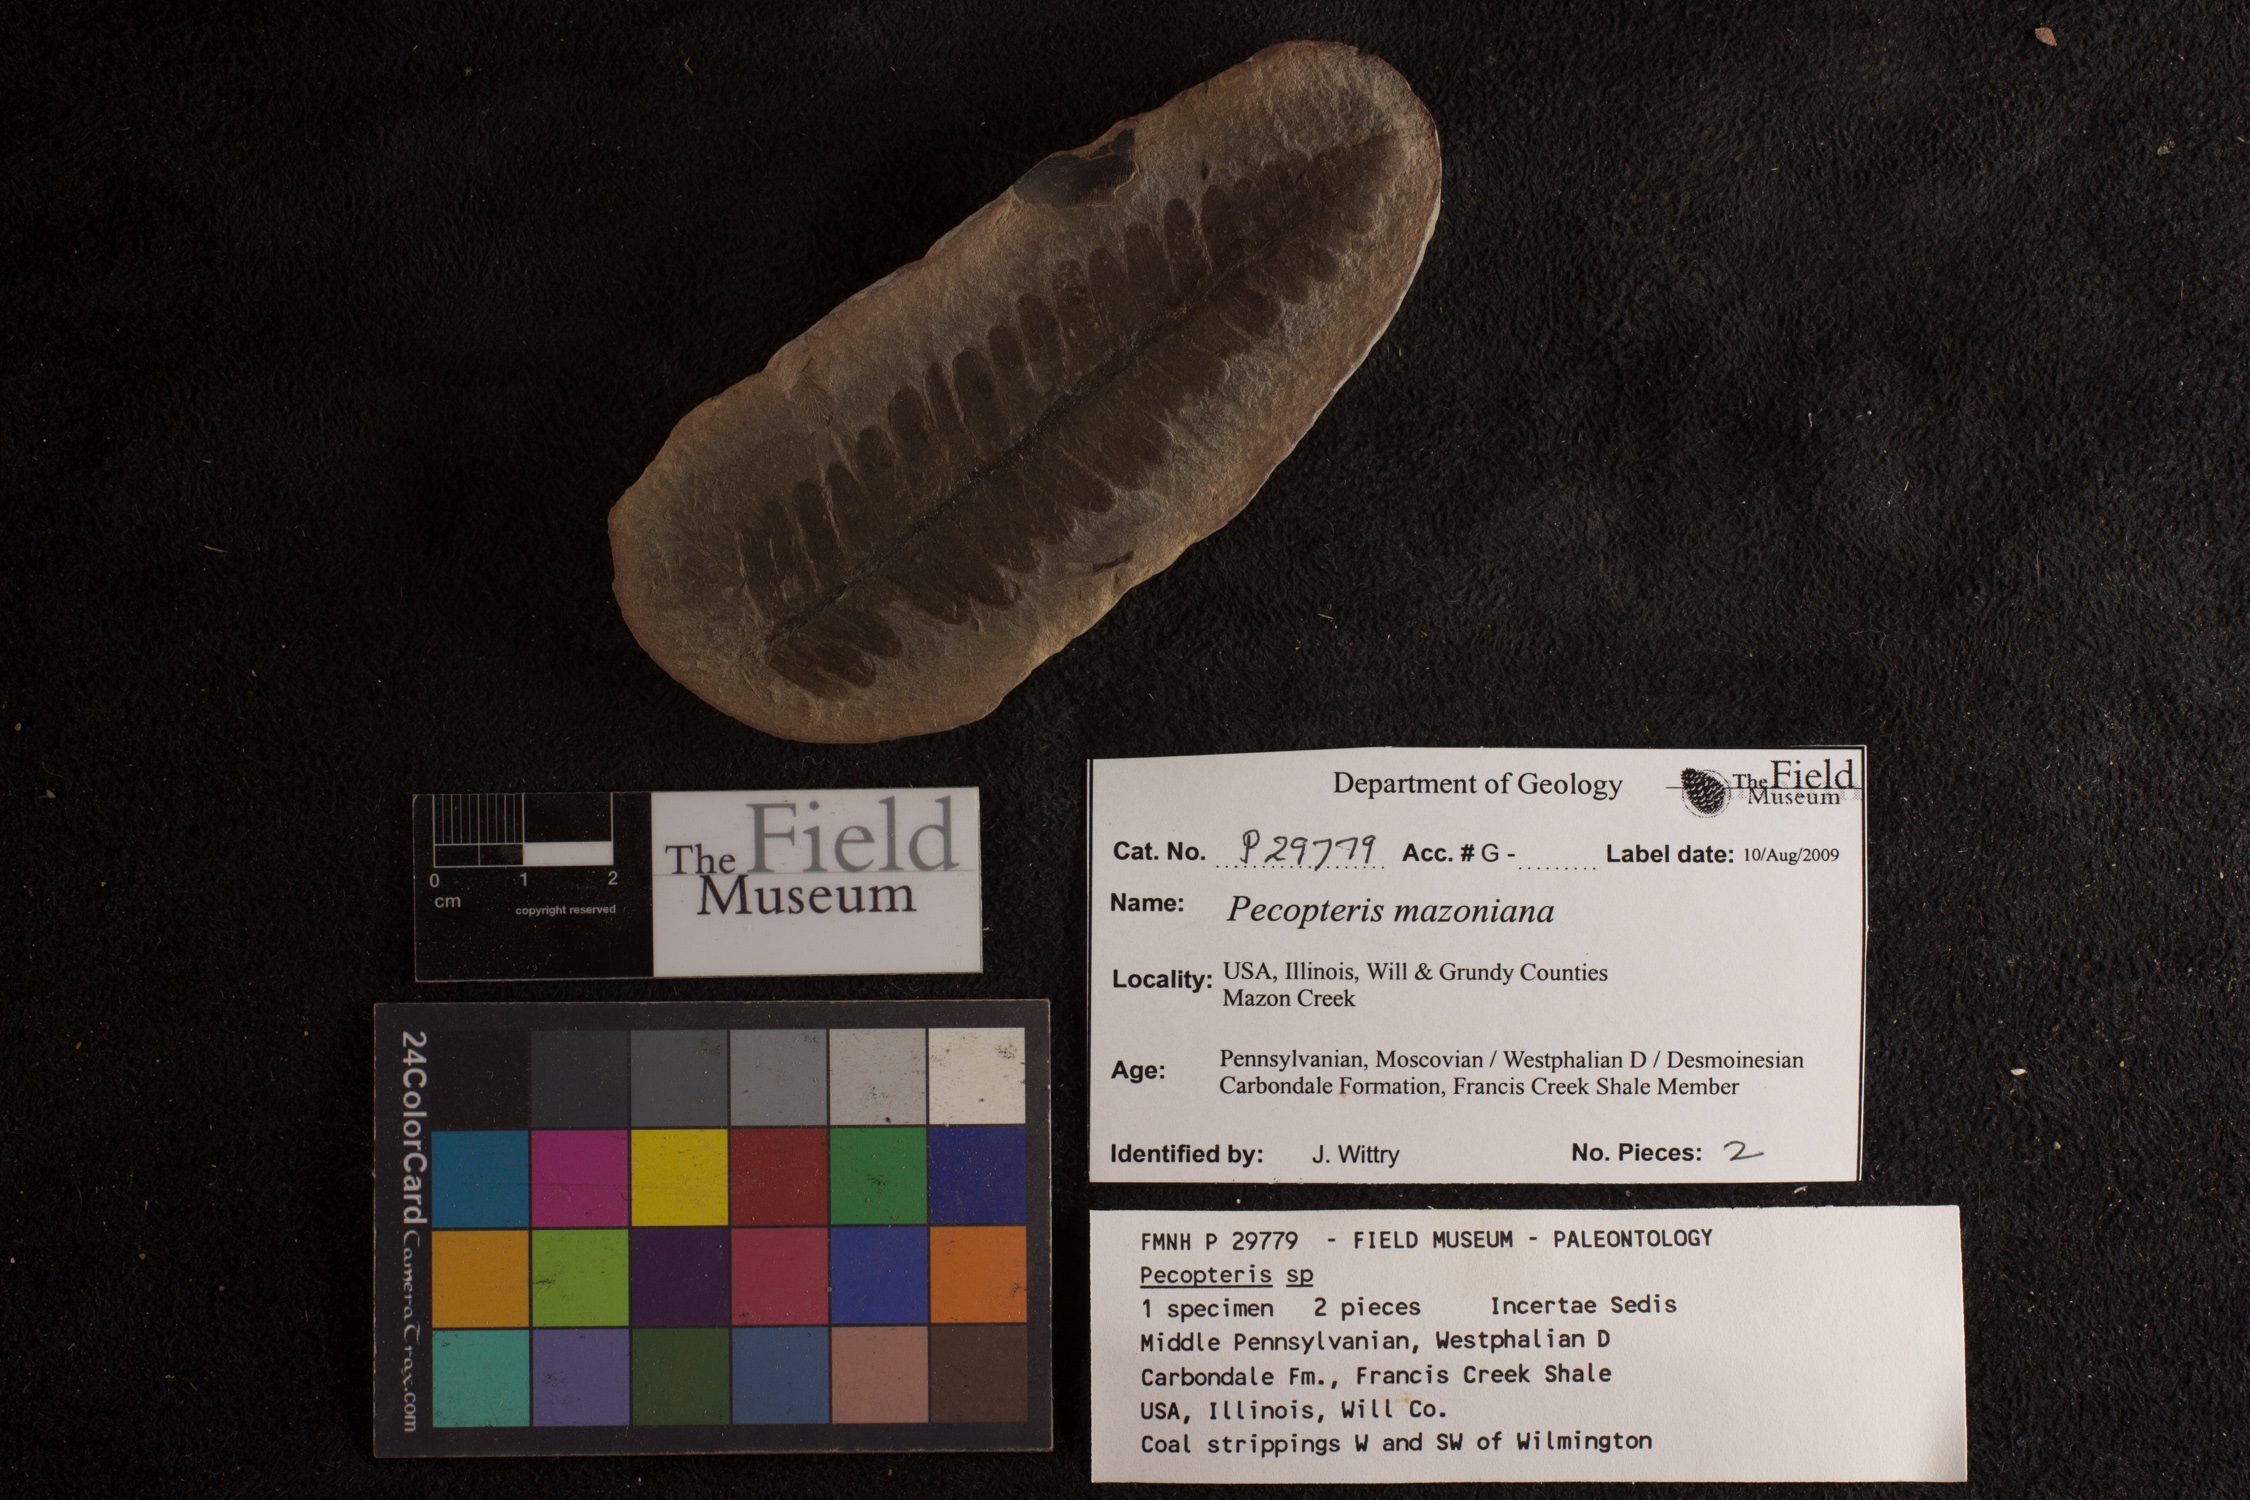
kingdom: Plantae
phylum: Tracheophyta
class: Polypodiopsida
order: Marattiales
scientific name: Marattiales
